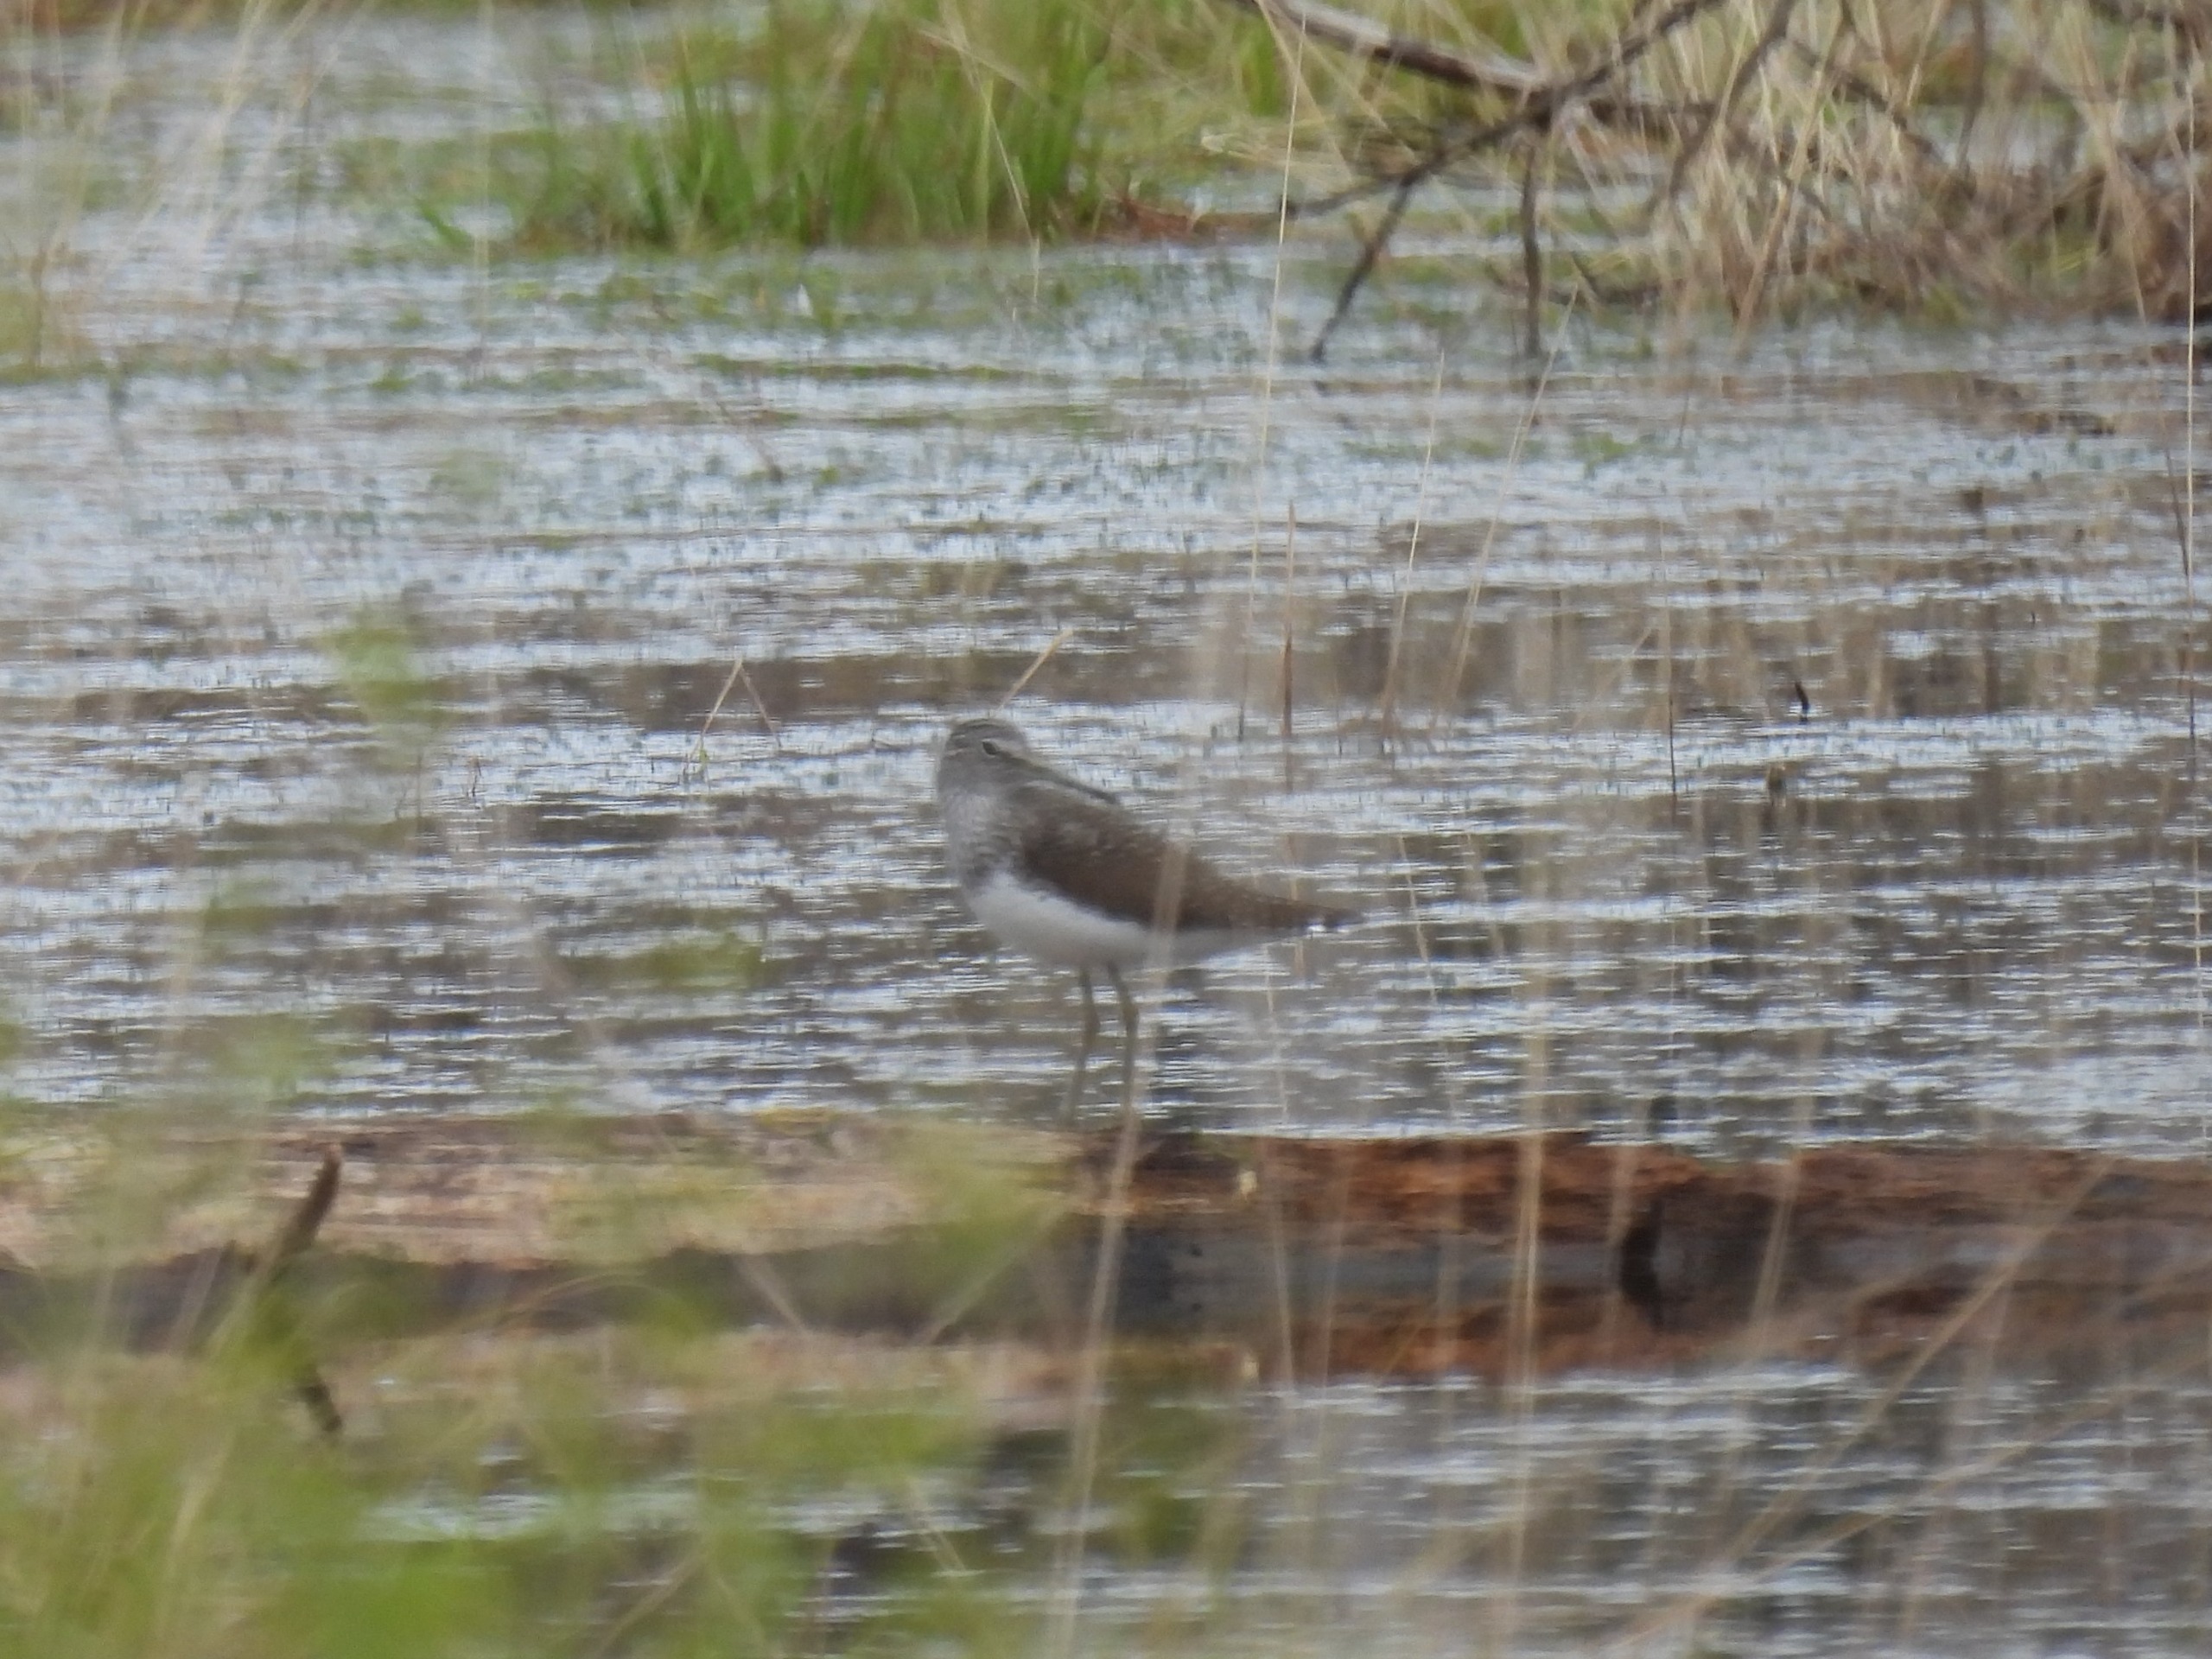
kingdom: Animalia
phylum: Chordata
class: Aves
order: Charadriiformes
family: Scolopacidae
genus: Tringa
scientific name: Tringa ochropus
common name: Svaleklire
